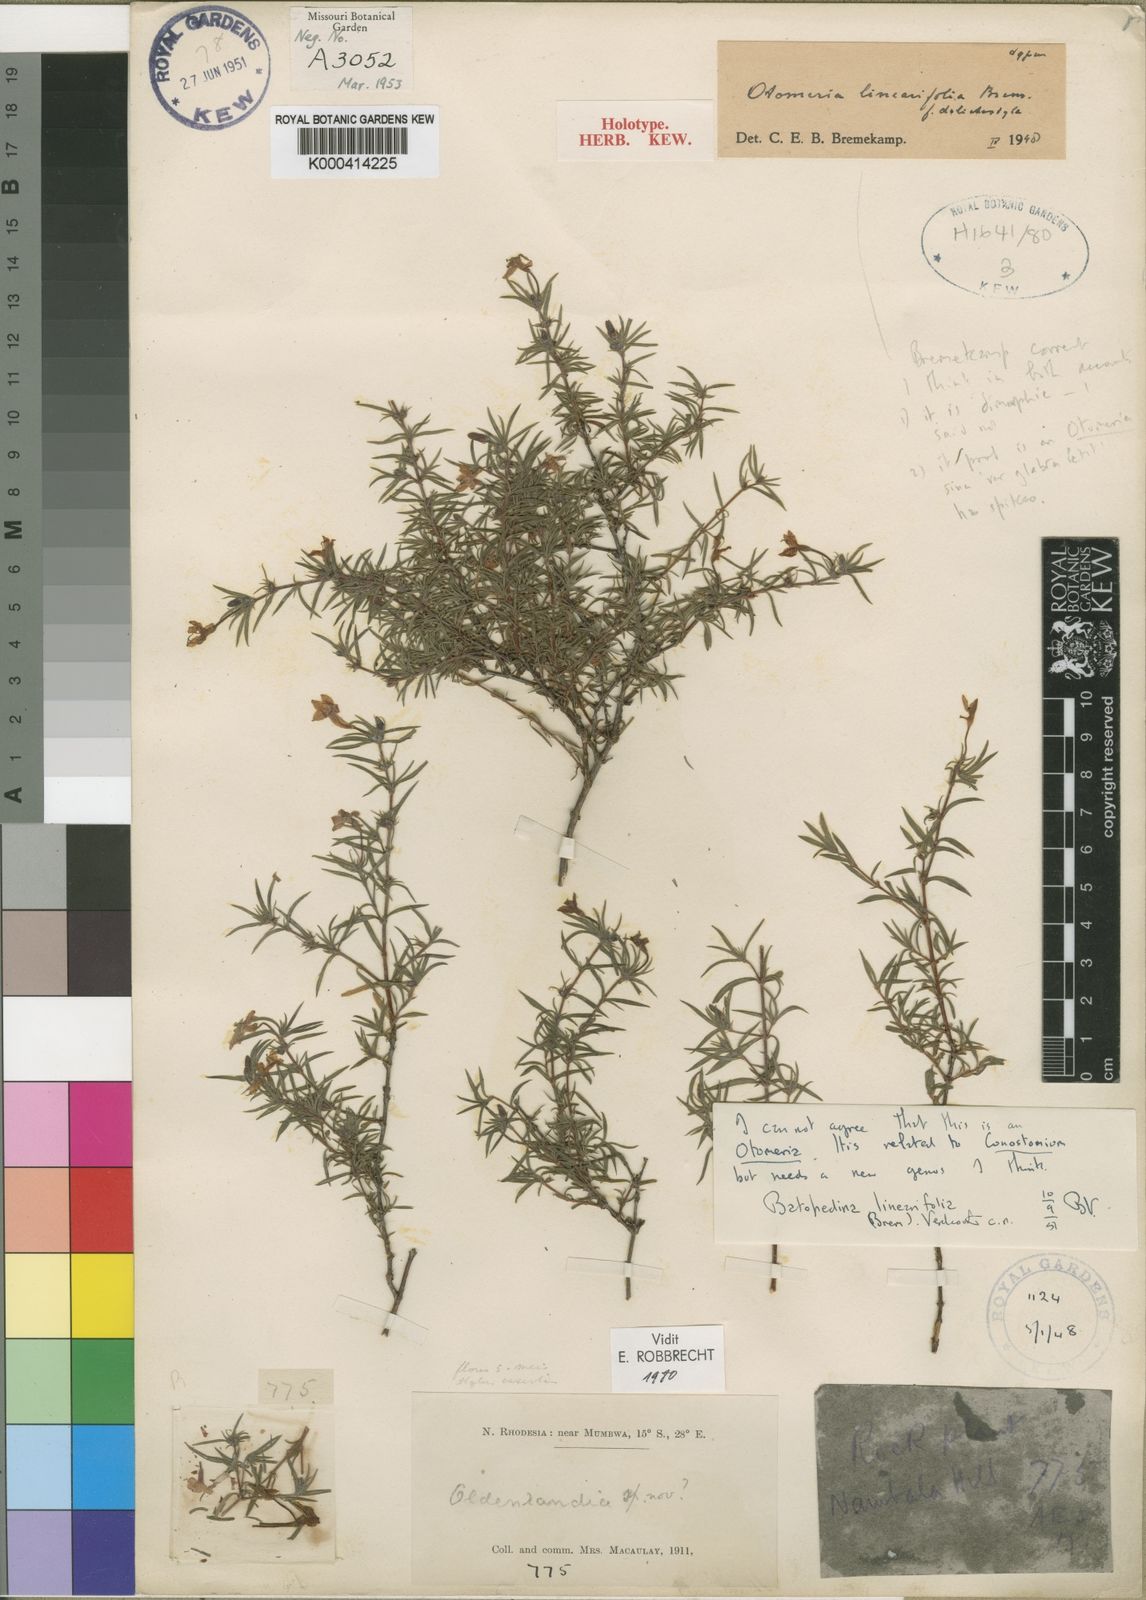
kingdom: Plantae
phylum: Tracheophyta
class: Magnoliopsida
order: Gentianales
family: Rubiaceae
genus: Batopedina
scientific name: Batopedina linearifolia
